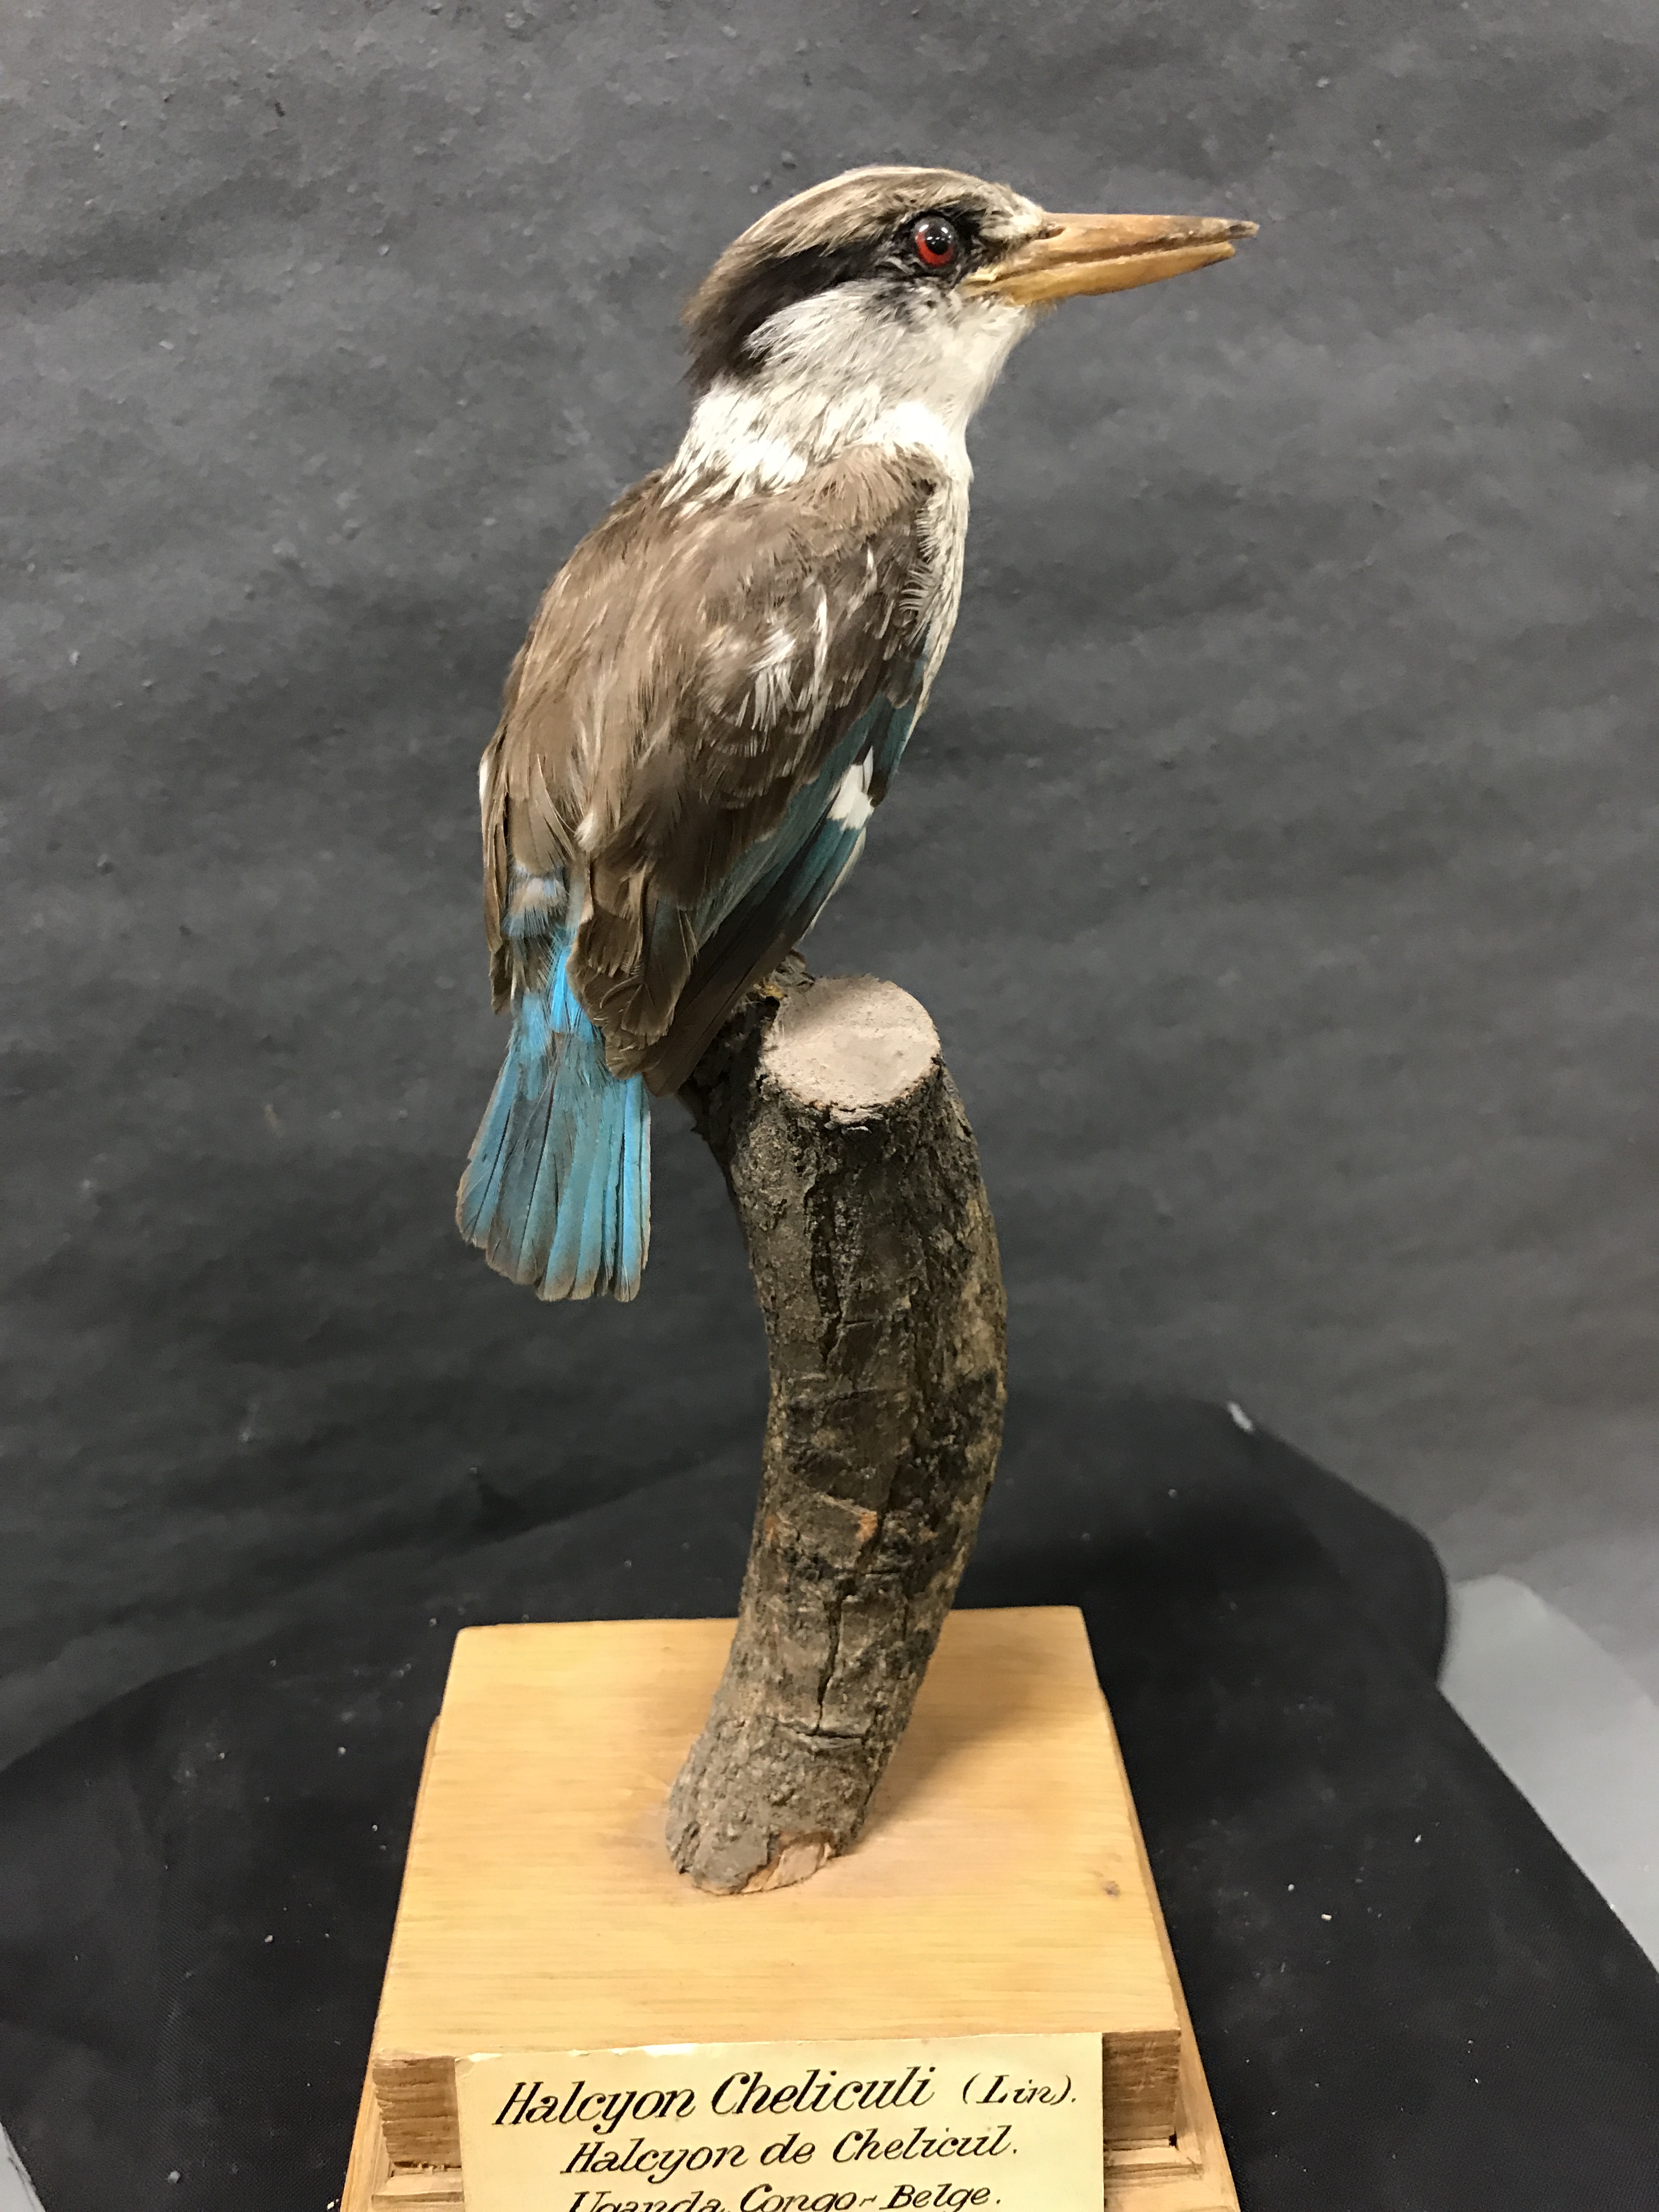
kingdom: Animalia
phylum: Chordata
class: Aves
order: Coraciiformes
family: Alcedinidae
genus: Halcyon
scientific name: Halcyon chelicuti
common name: Striped kingfisher
